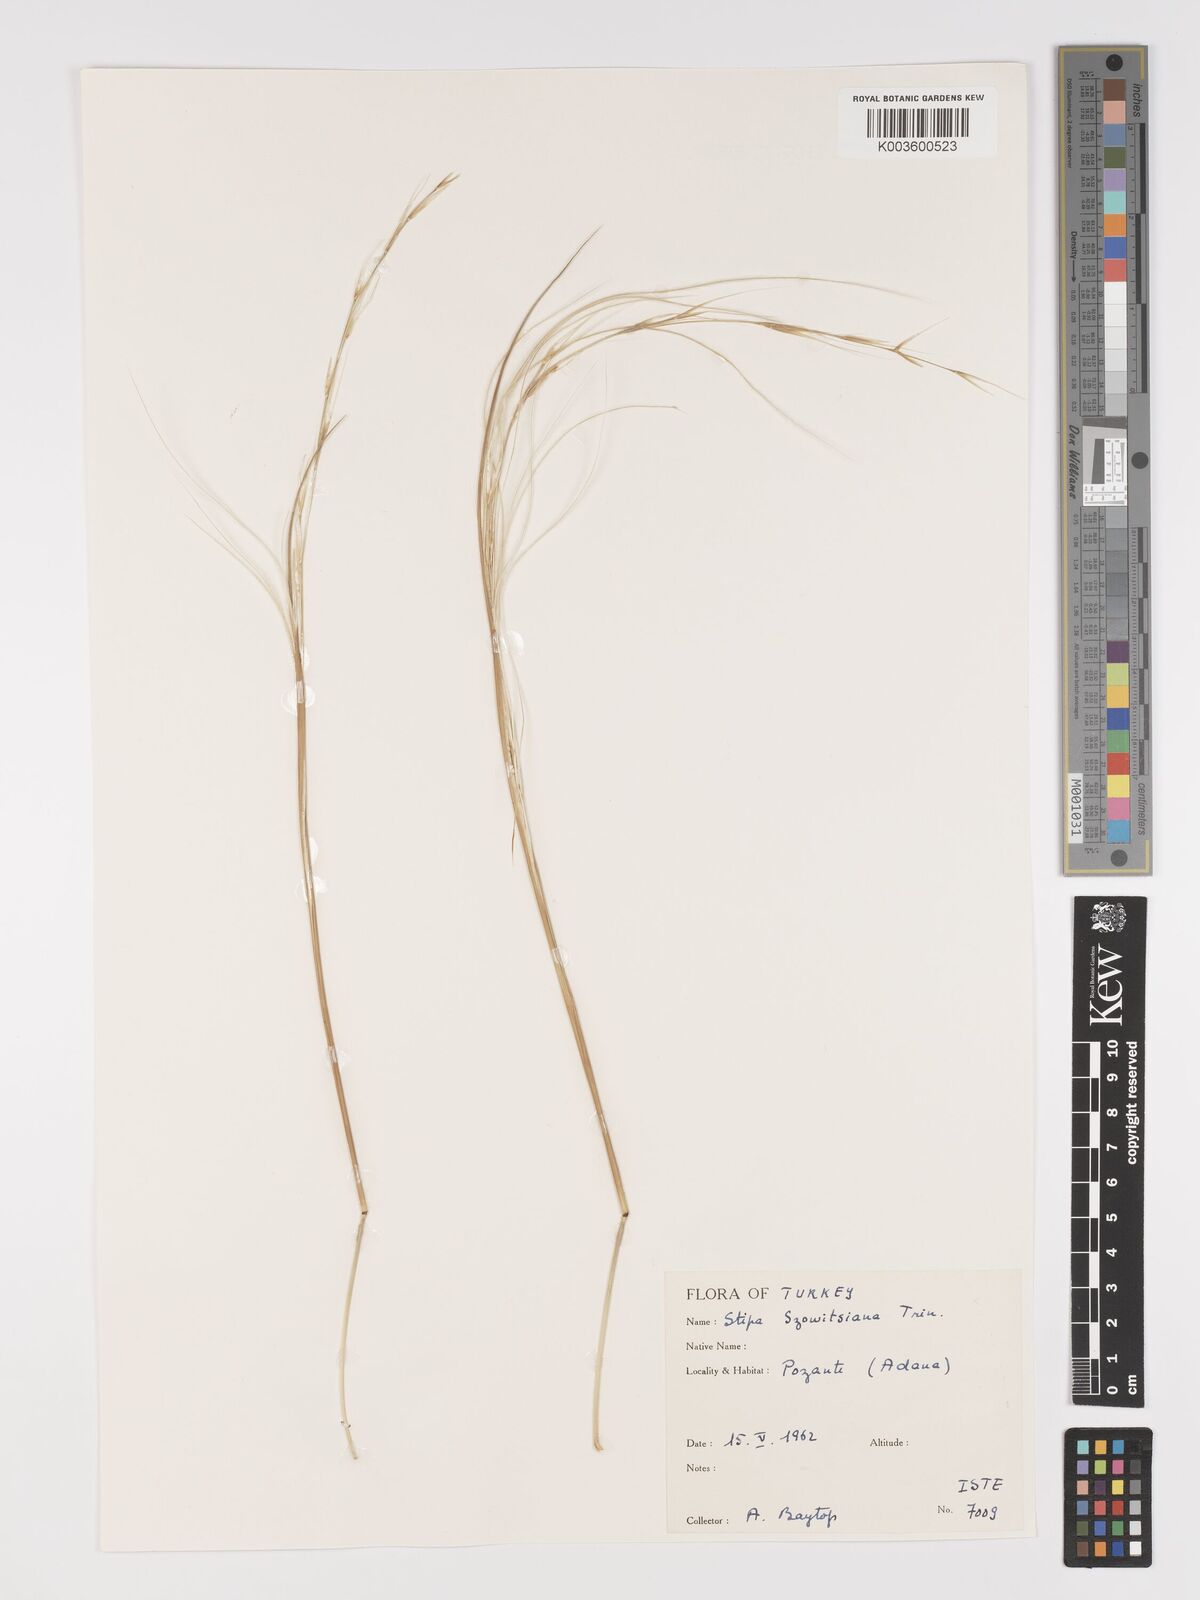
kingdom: Plantae
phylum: Tracheophyta
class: Liliopsida
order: Poales
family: Poaceae
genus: Stipa
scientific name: Stipa barbata
